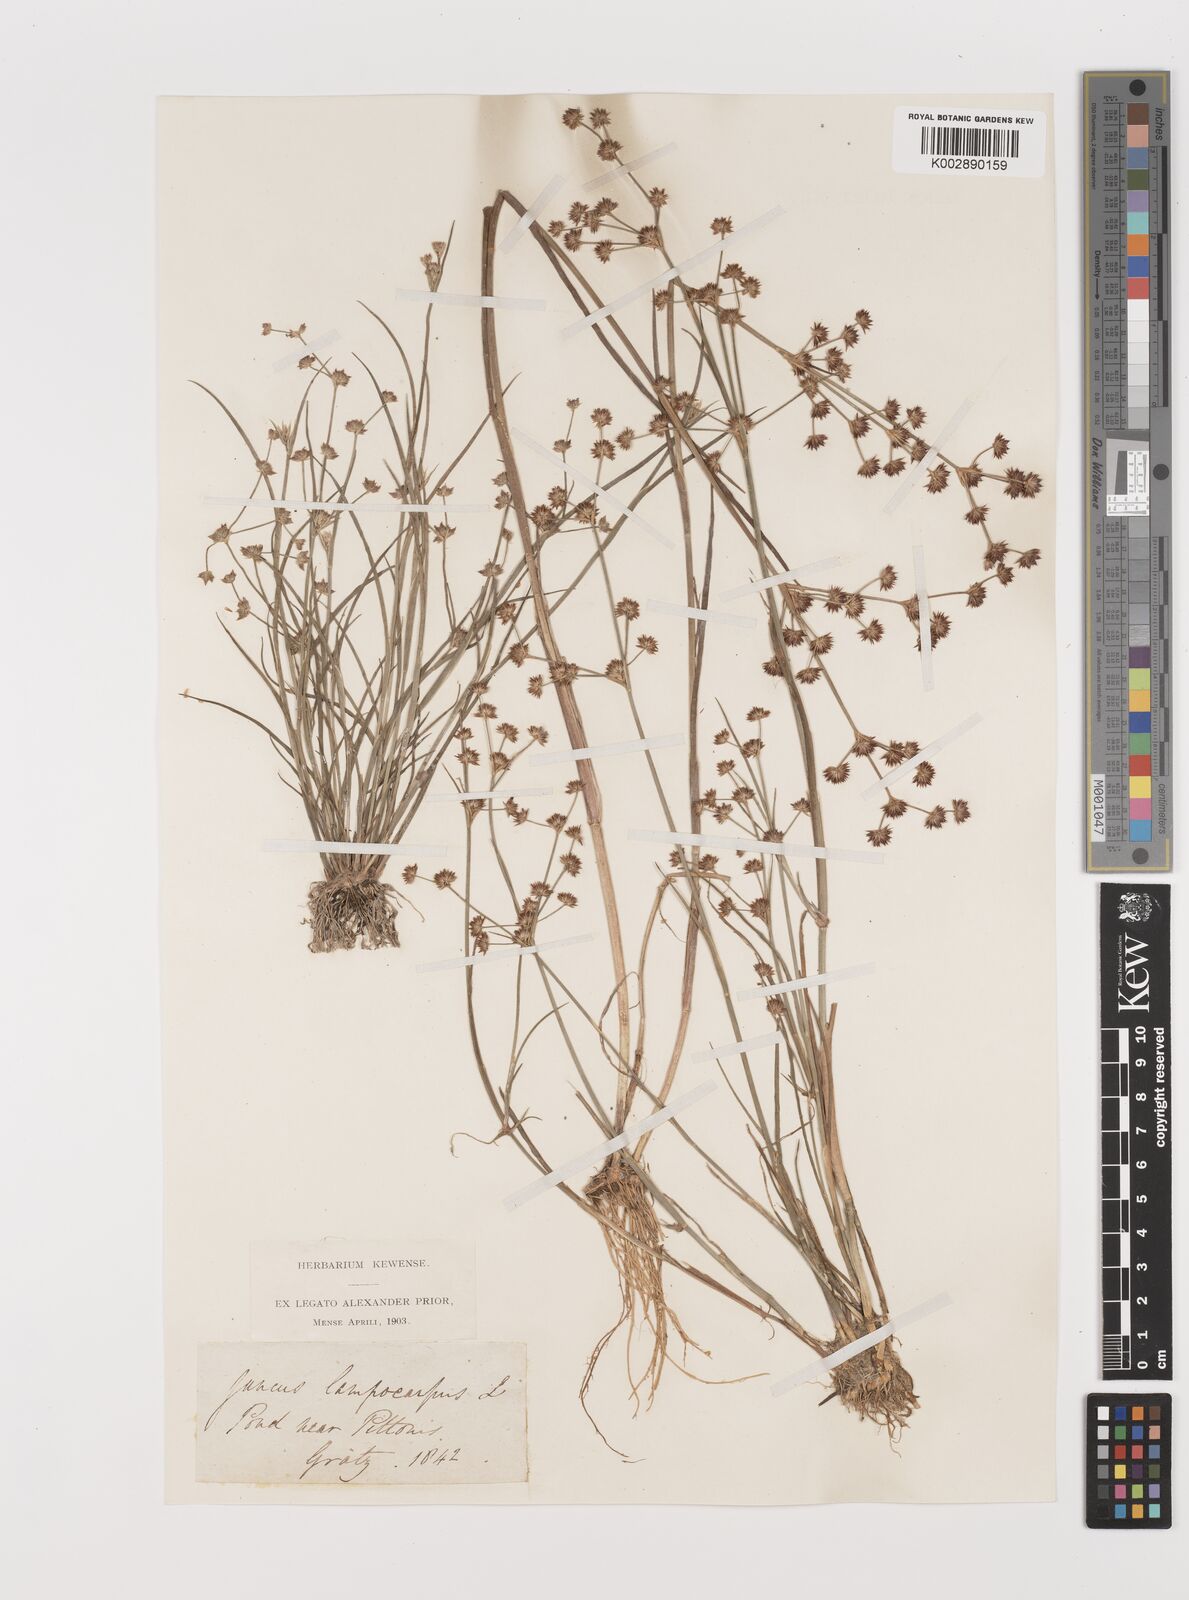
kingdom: Plantae
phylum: Tracheophyta
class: Liliopsida
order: Poales
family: Juncaceae
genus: Juncus
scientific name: Juncus articulatus
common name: Jointed rush
